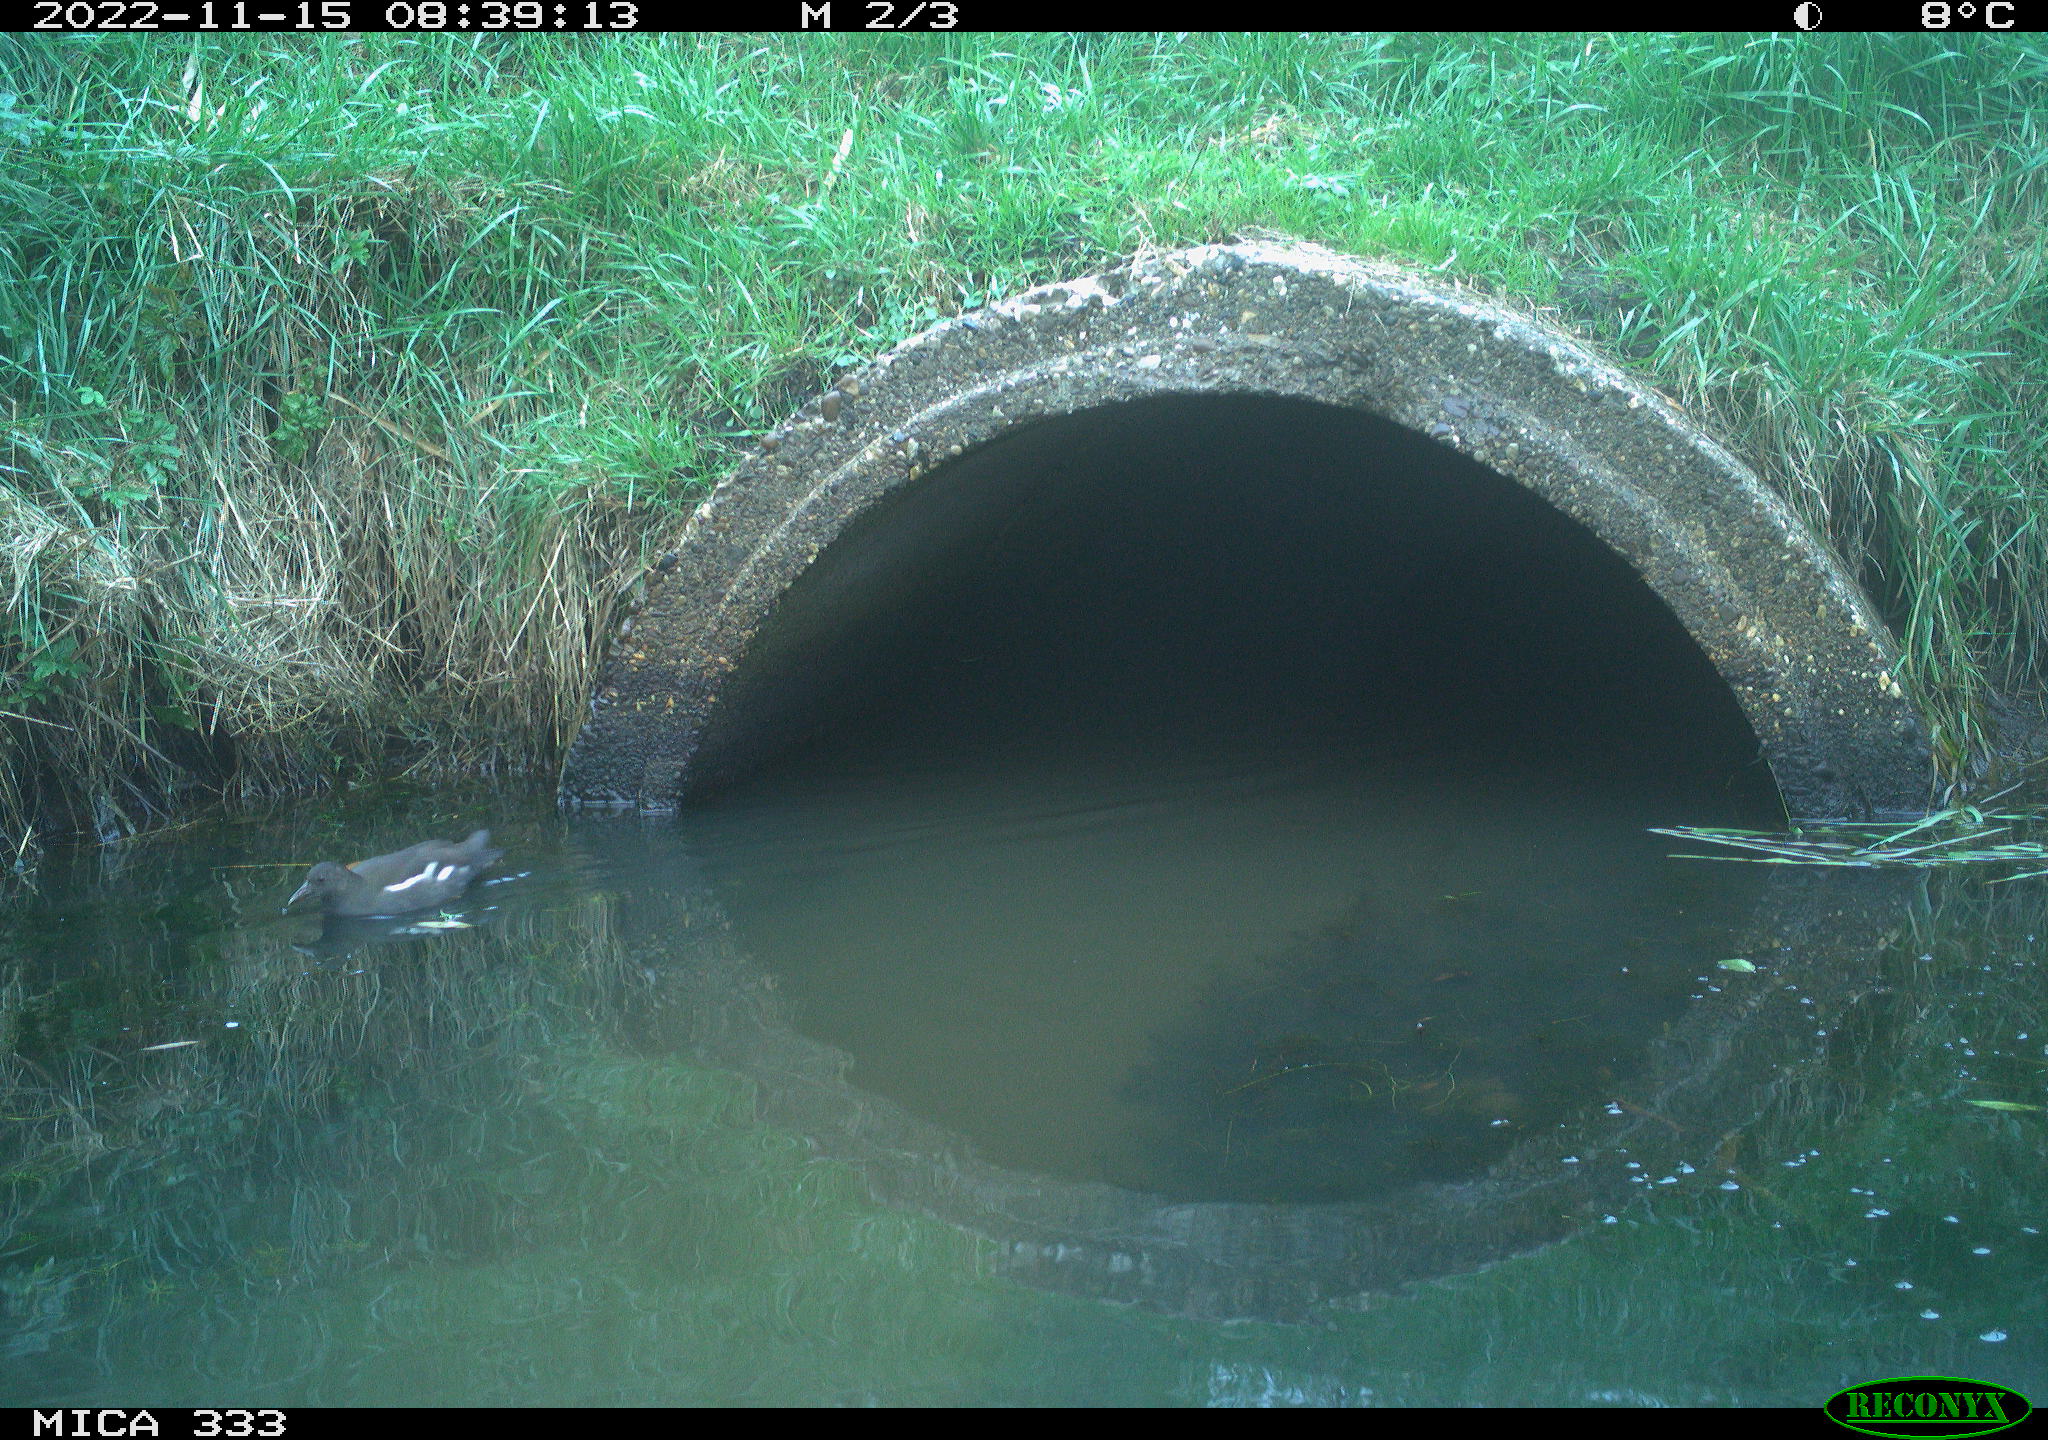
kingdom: Animalia
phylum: Chordata
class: Aves
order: Gruiformes
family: Rallidae
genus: Gallinula
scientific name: Gallinula chloropus
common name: Common moorhen
